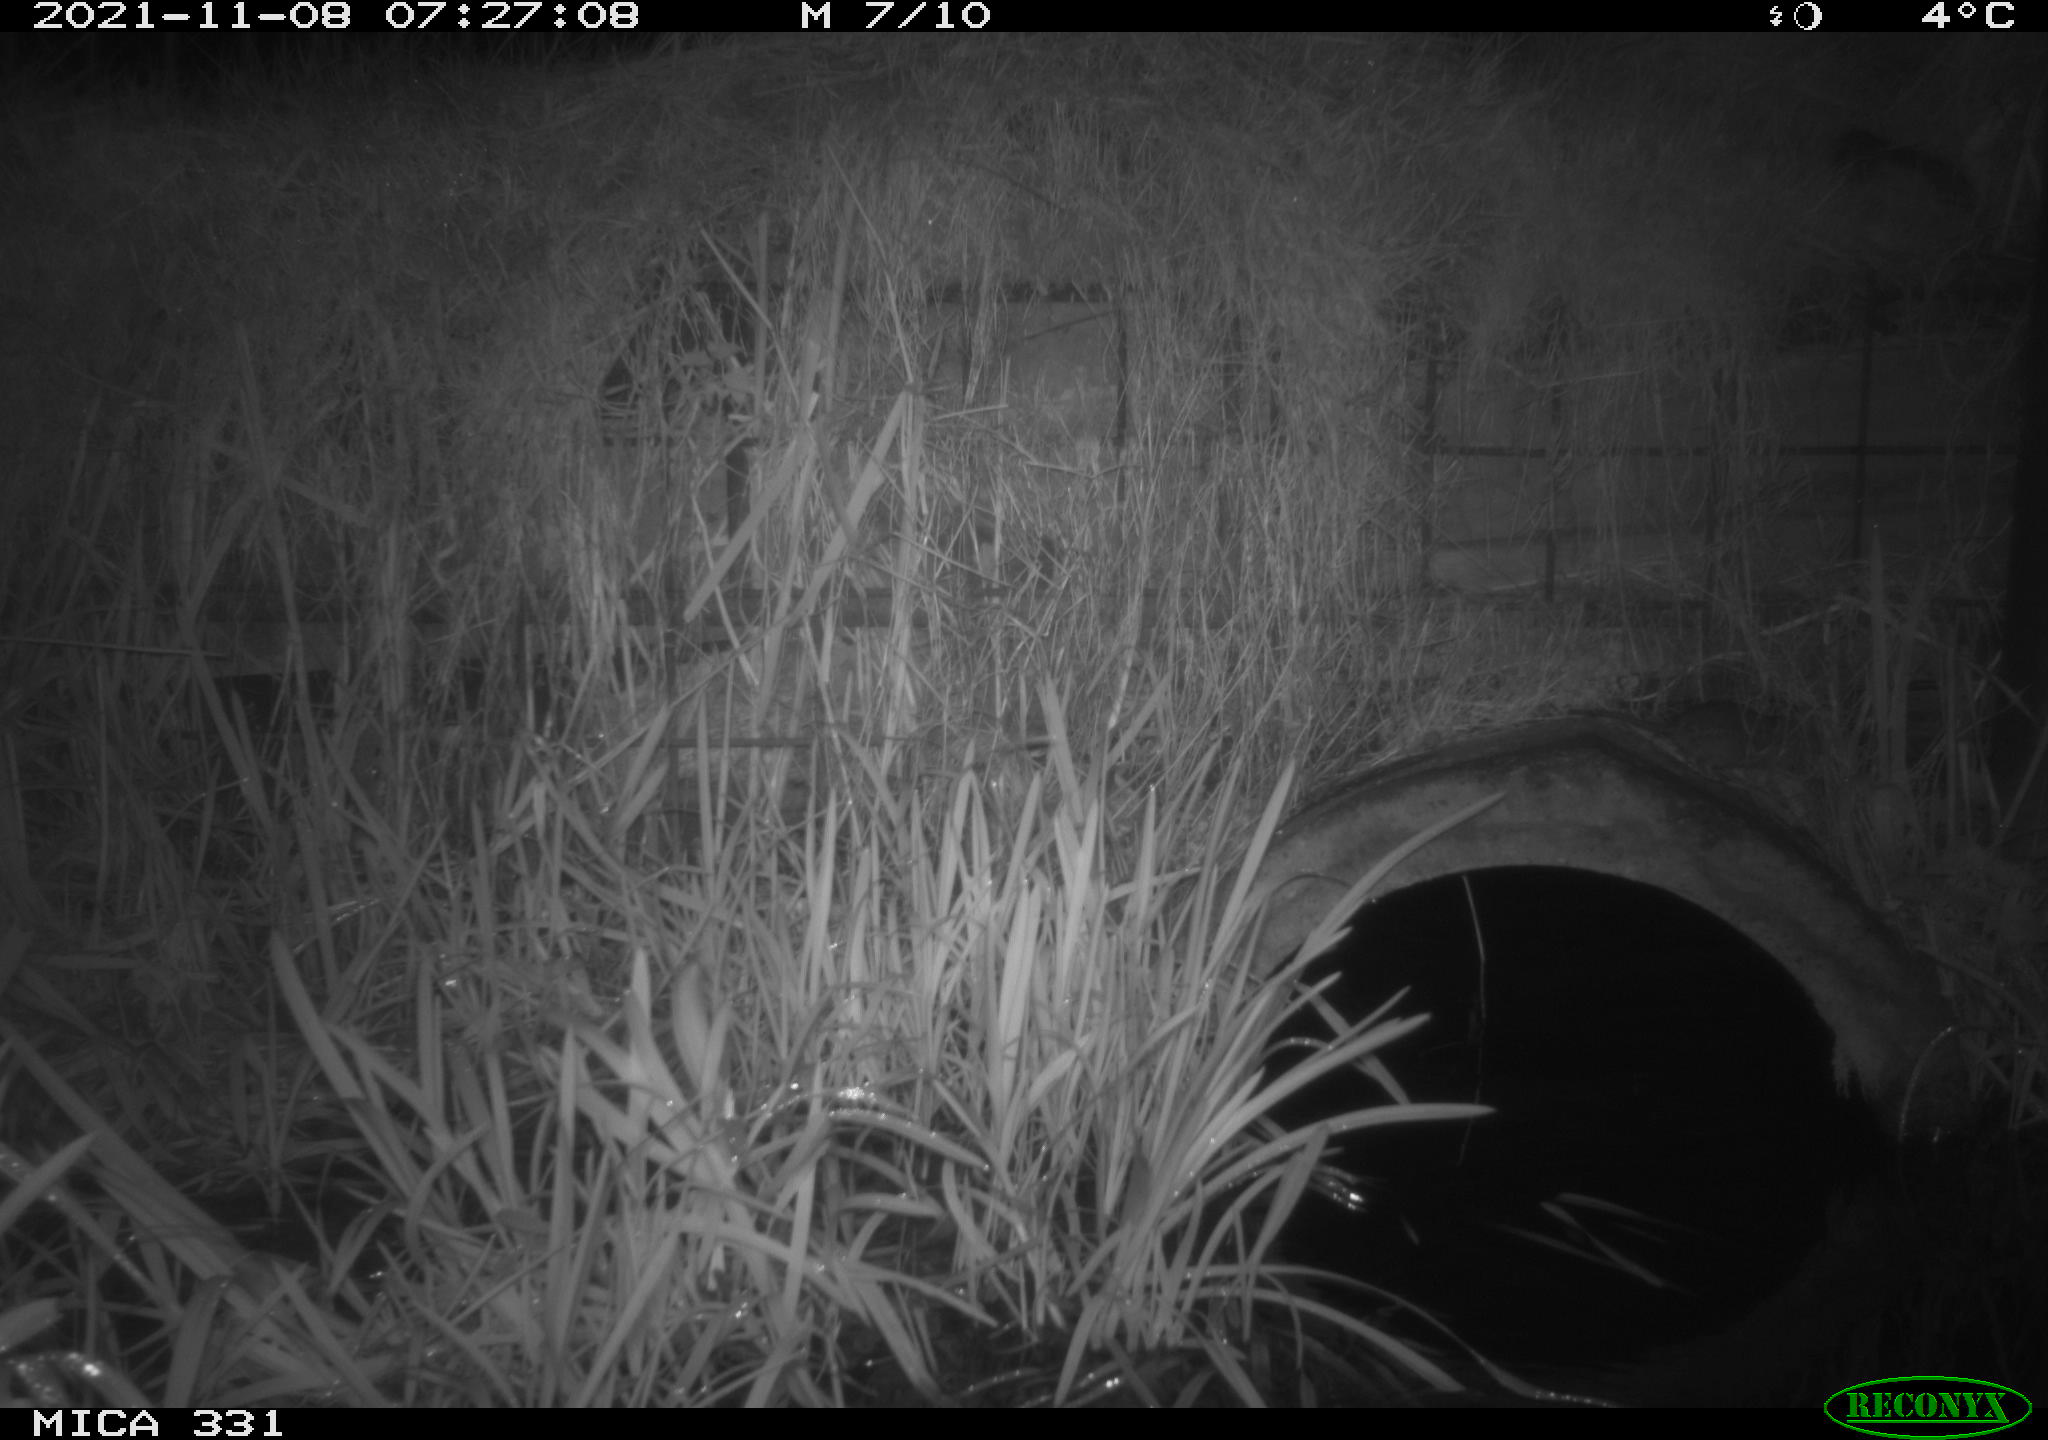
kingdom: Animalia
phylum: Chordata
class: Mammalia
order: Rodentia
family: Muridae
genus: Rattus
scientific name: Rattus norvegicus
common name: Brown rat
